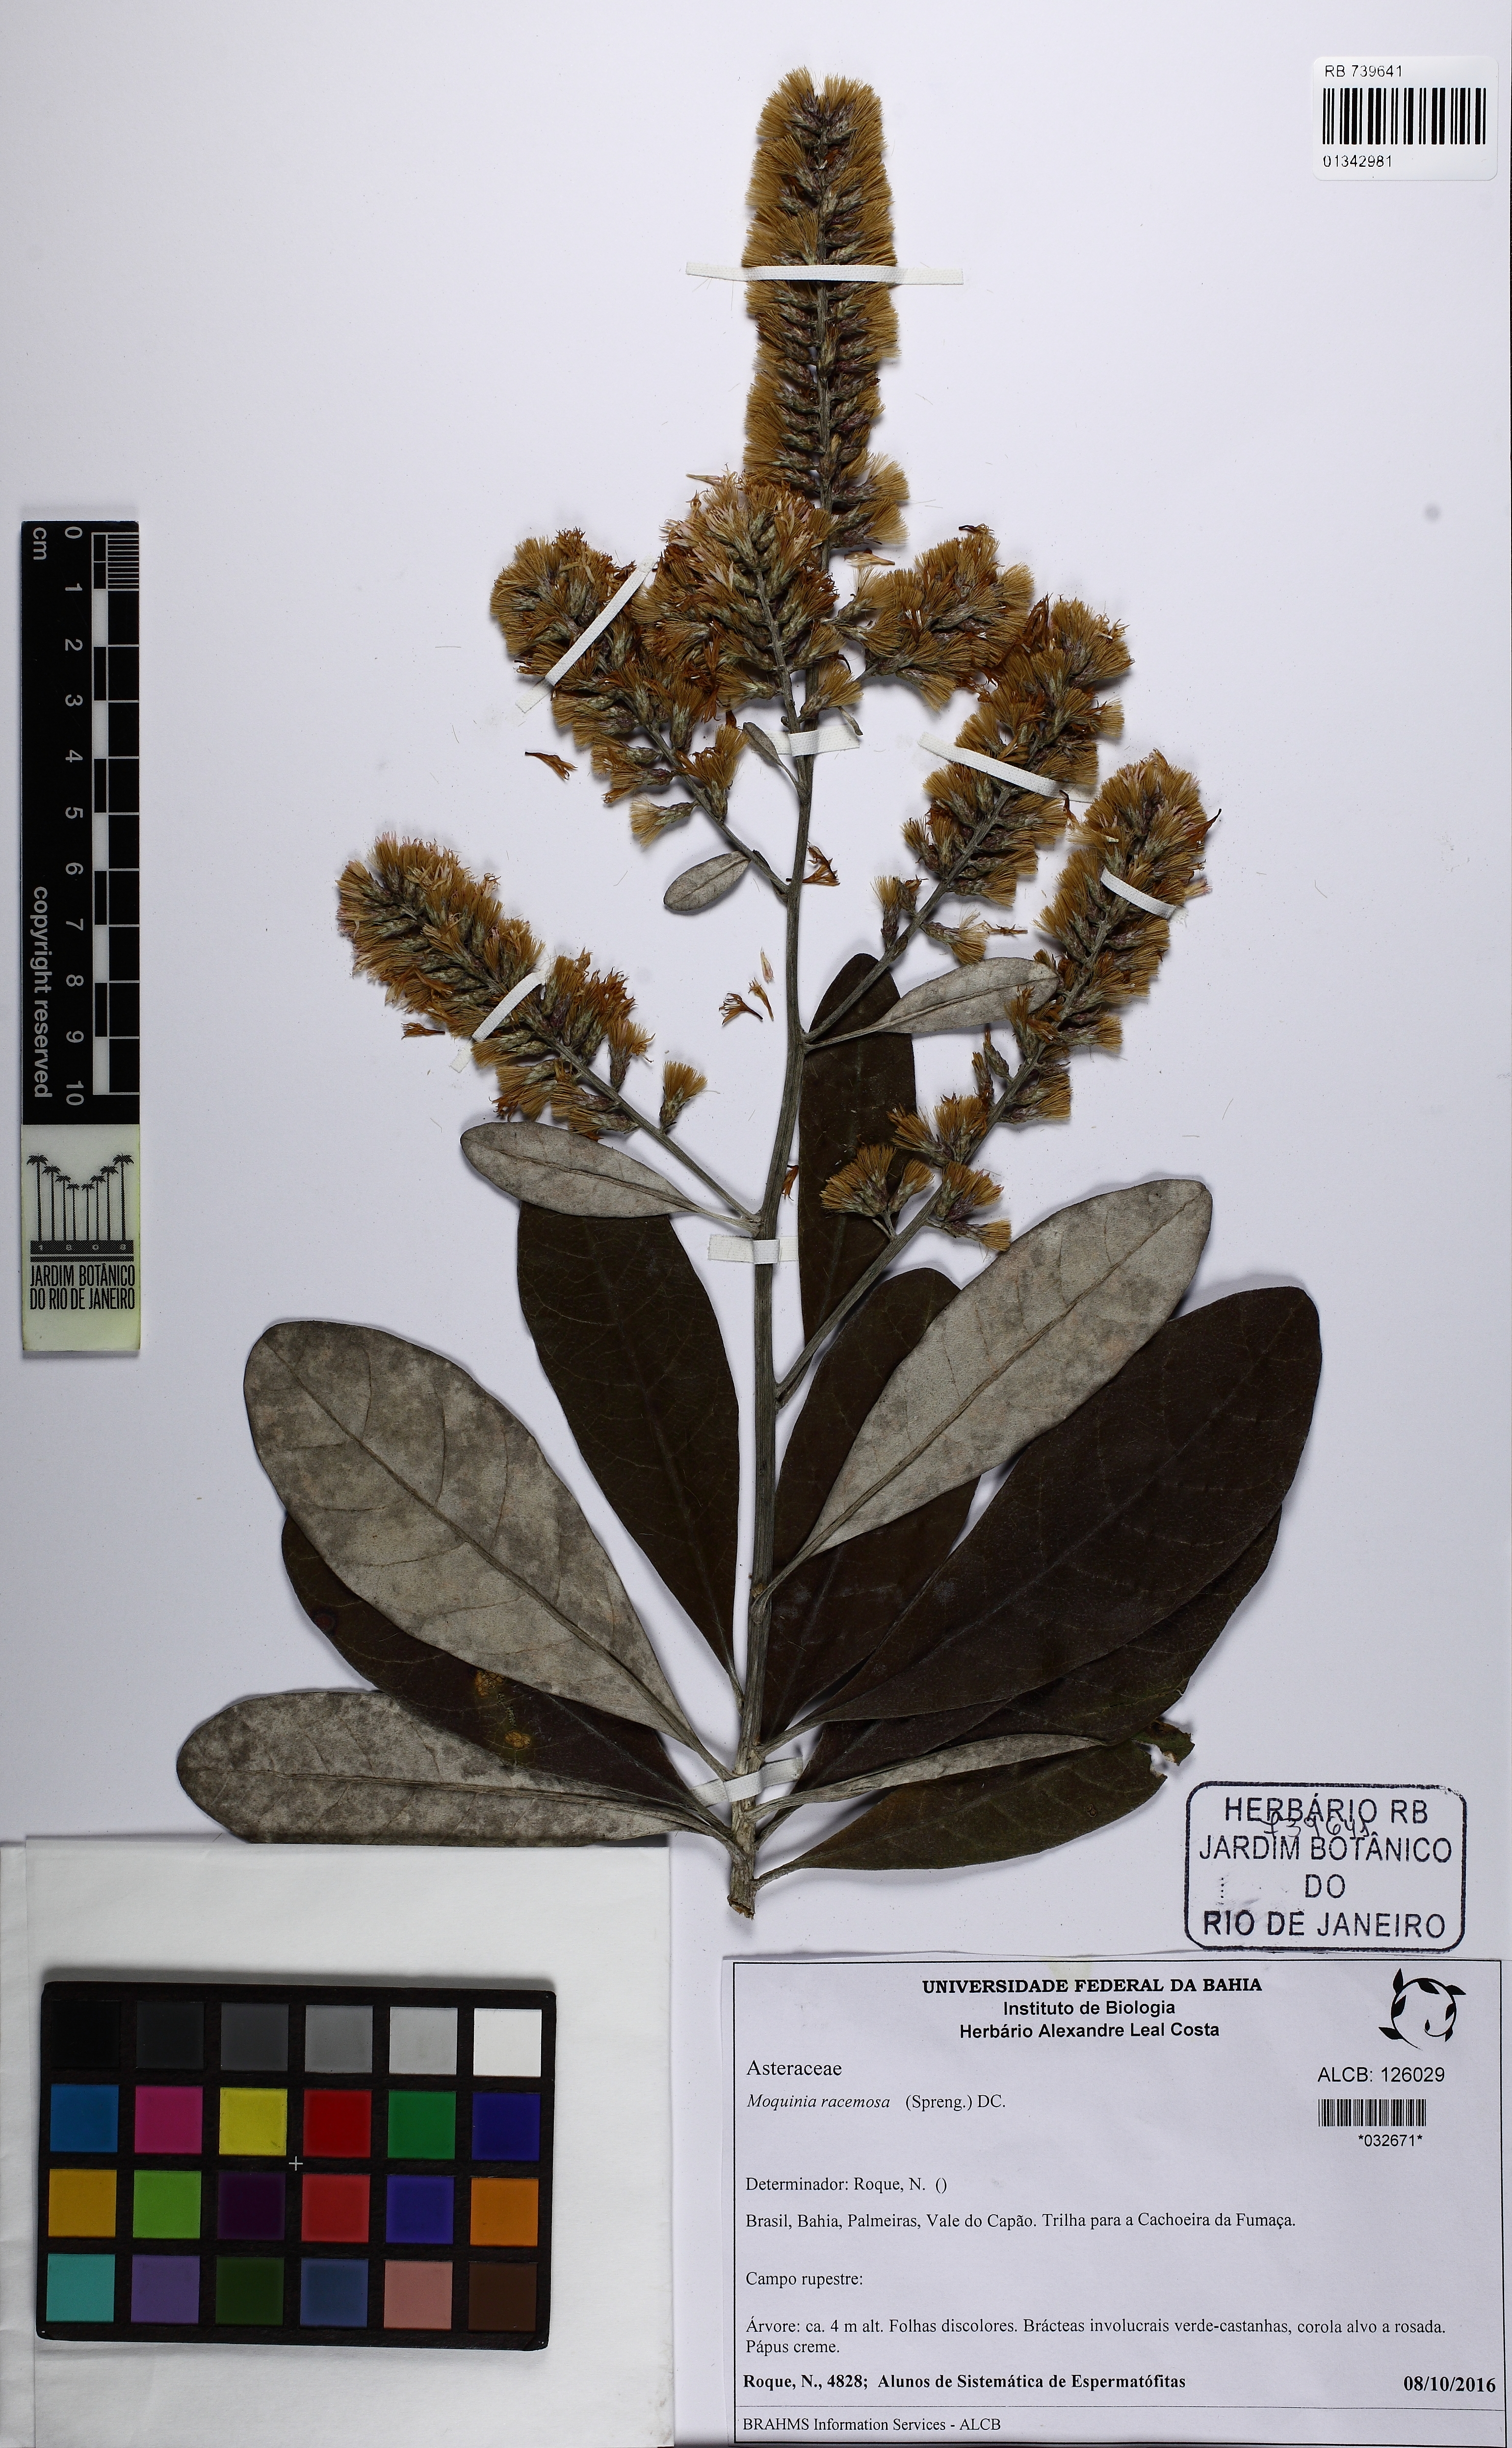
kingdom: Plantae
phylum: Tracheophyta
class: Magnoliopsida
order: Asterales
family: Asteraceae
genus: Moquinia
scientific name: Moquinia racemosa
